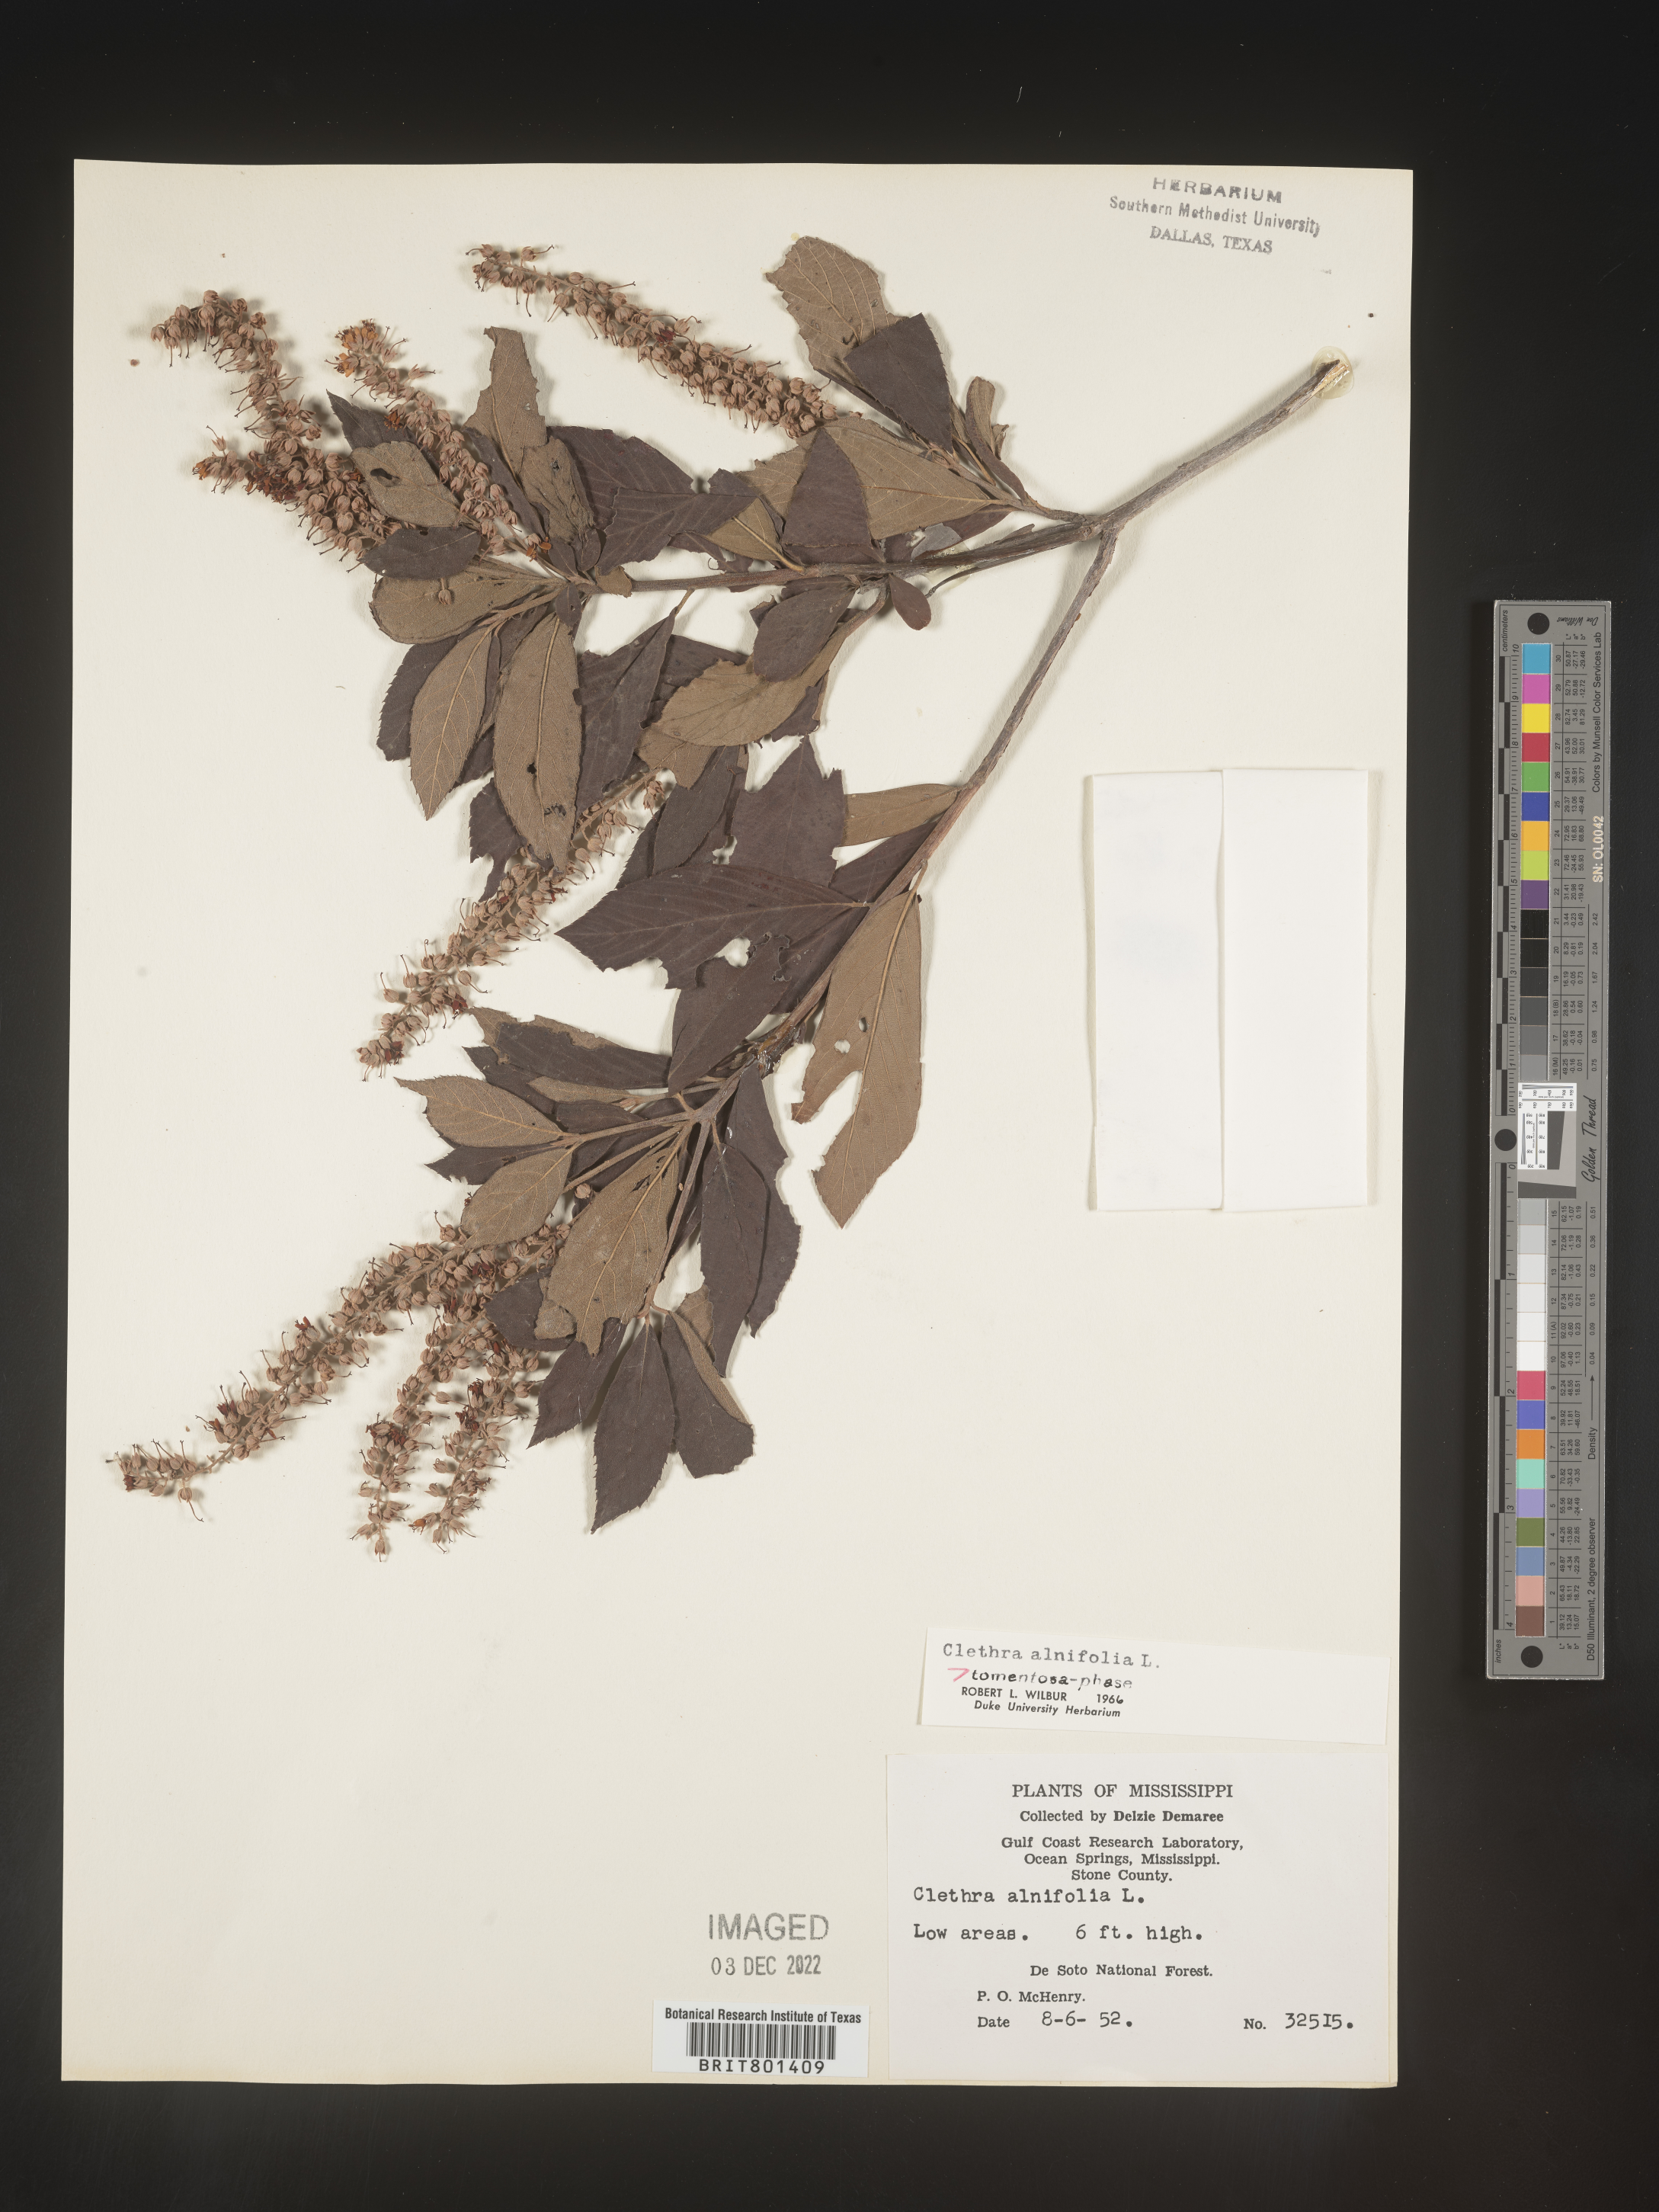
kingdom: Plantae
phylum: Tracheophyta
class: Magnoliopsida
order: Ericales
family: Clethraceae
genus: Clethra
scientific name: Clethra alnifolia
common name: Sweet pepperbush
